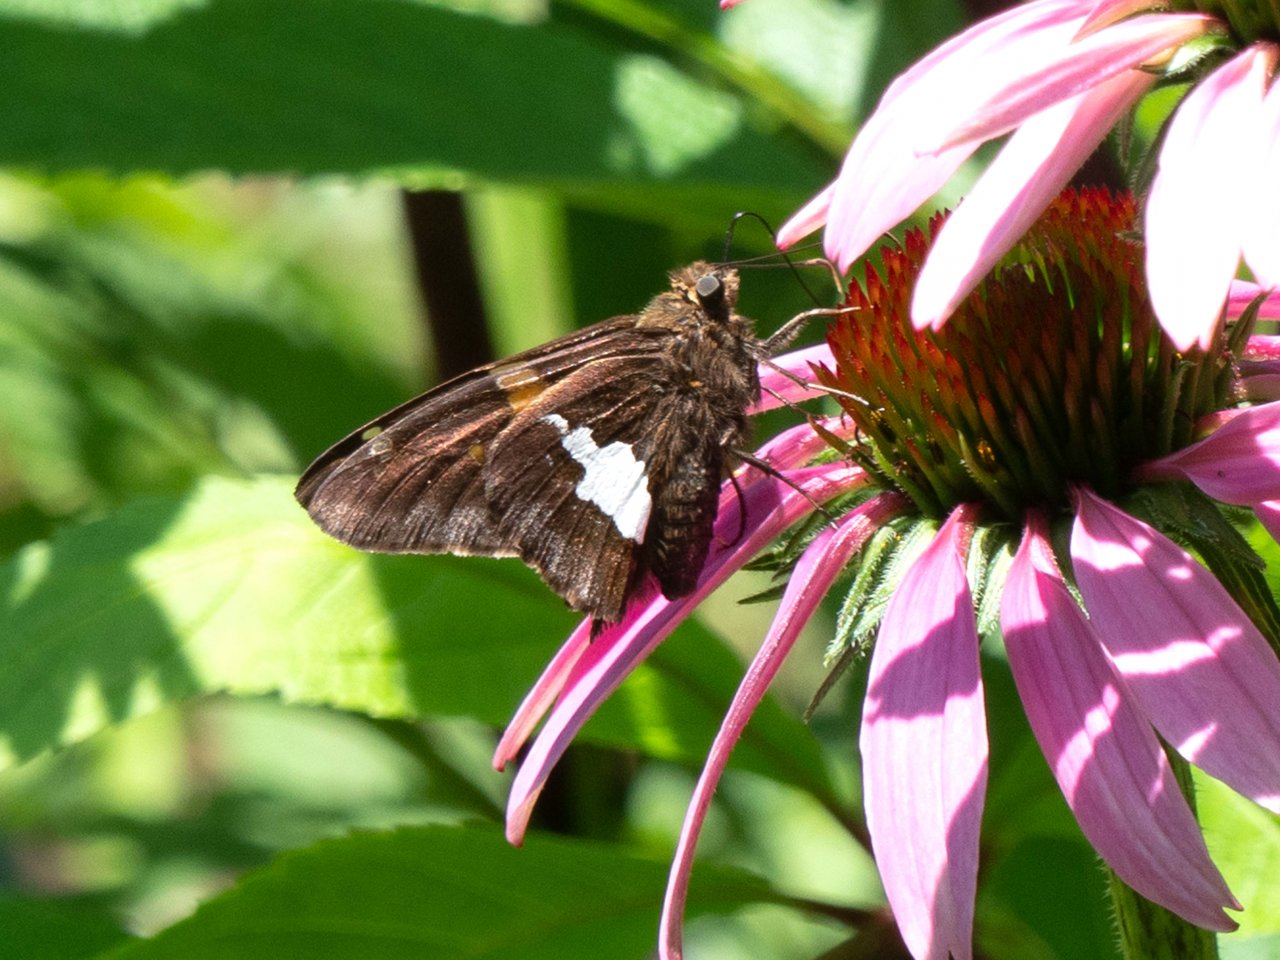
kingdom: Animalia
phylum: Arthropoda
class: Insecta
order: Lepidoptera
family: Hesperiidae
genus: Epargyreus
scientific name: Epargyreus clarus
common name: Silver-spotted Skipper
